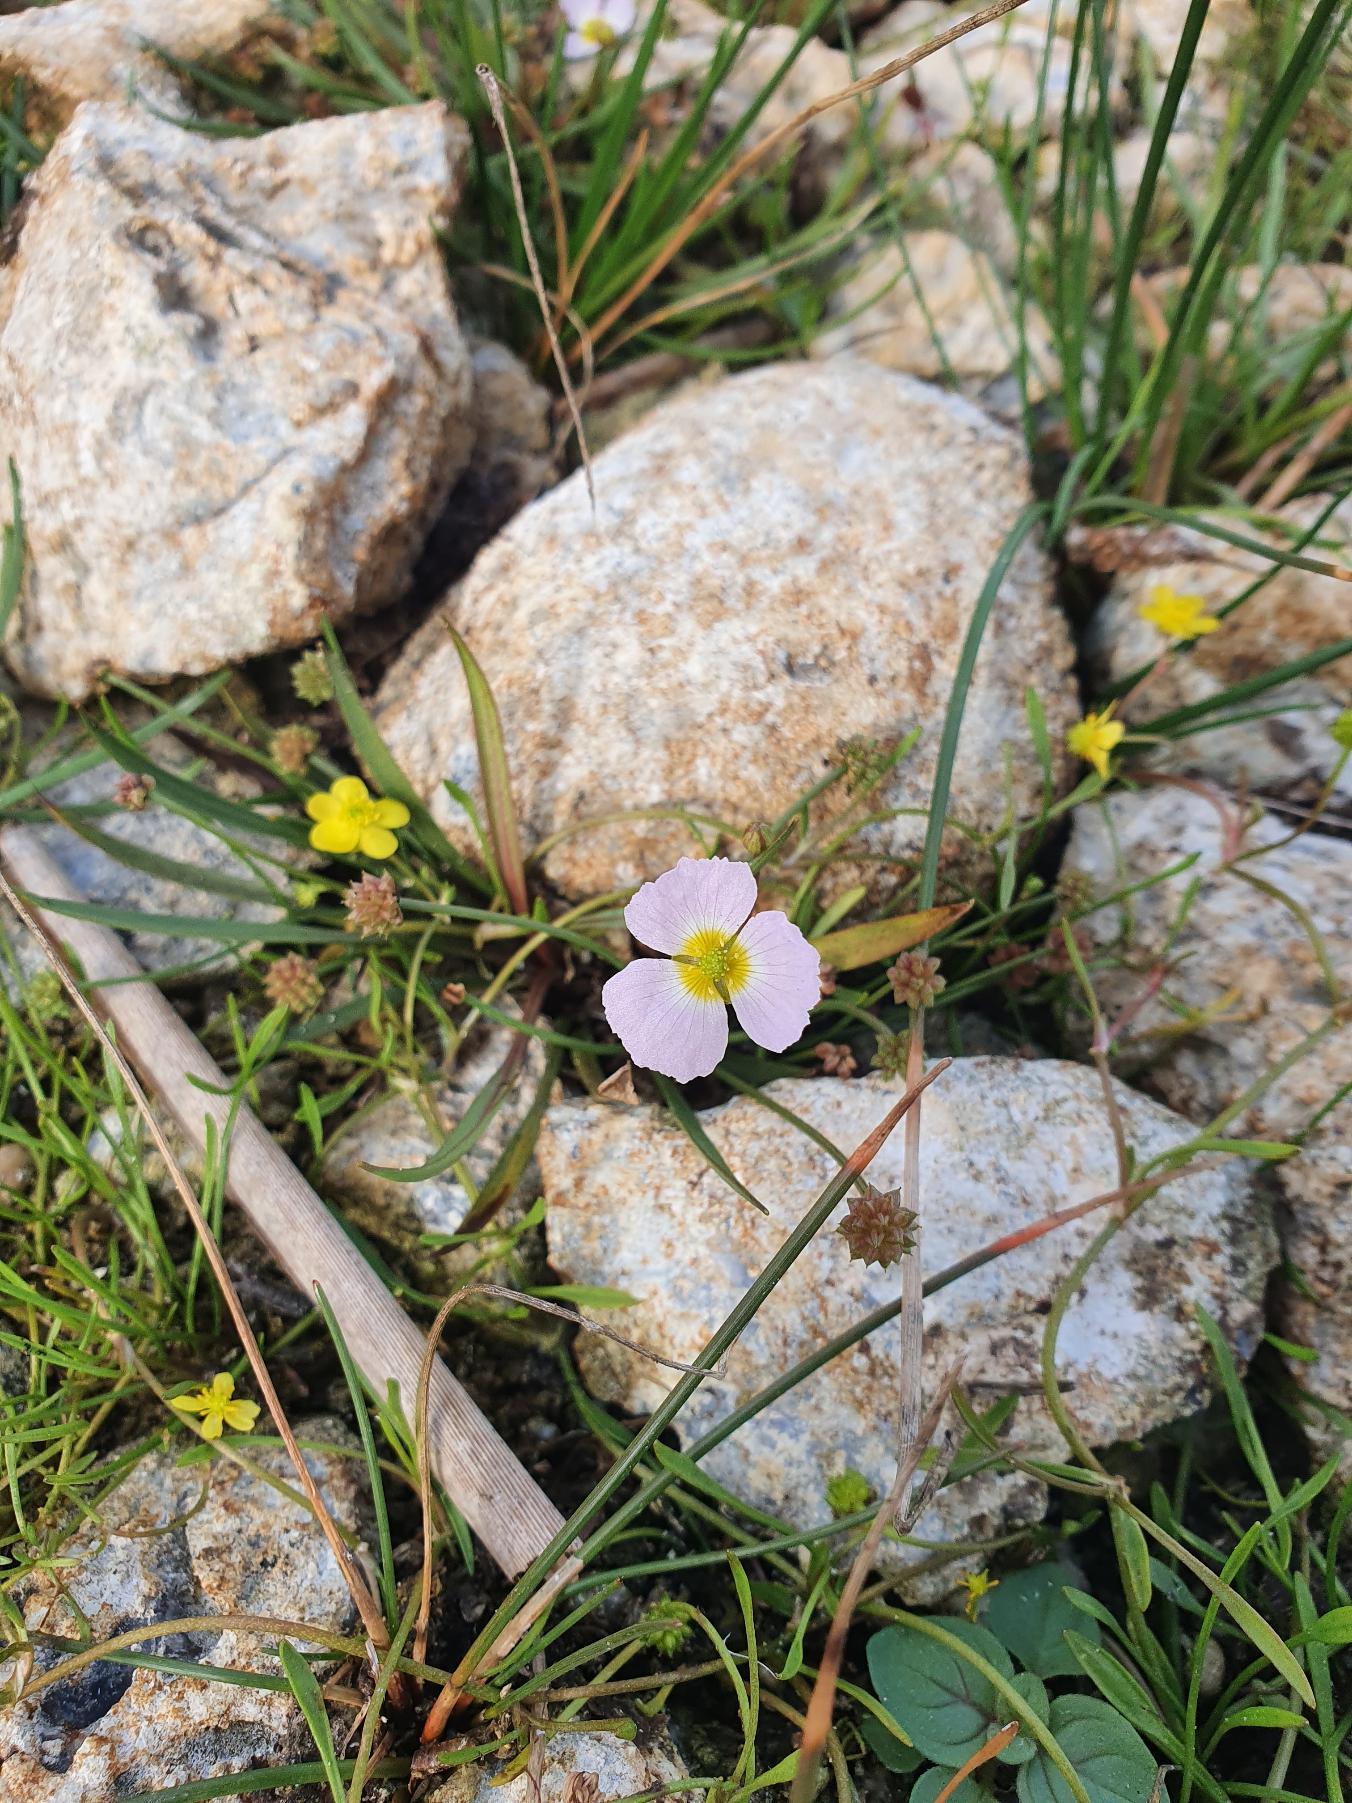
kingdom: Plantae
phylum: Tracheophyta
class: Liliopsida
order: Alismatales
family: Alismataceae
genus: Baldellia
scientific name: Baldellia ranunculoides
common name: Søpryd
